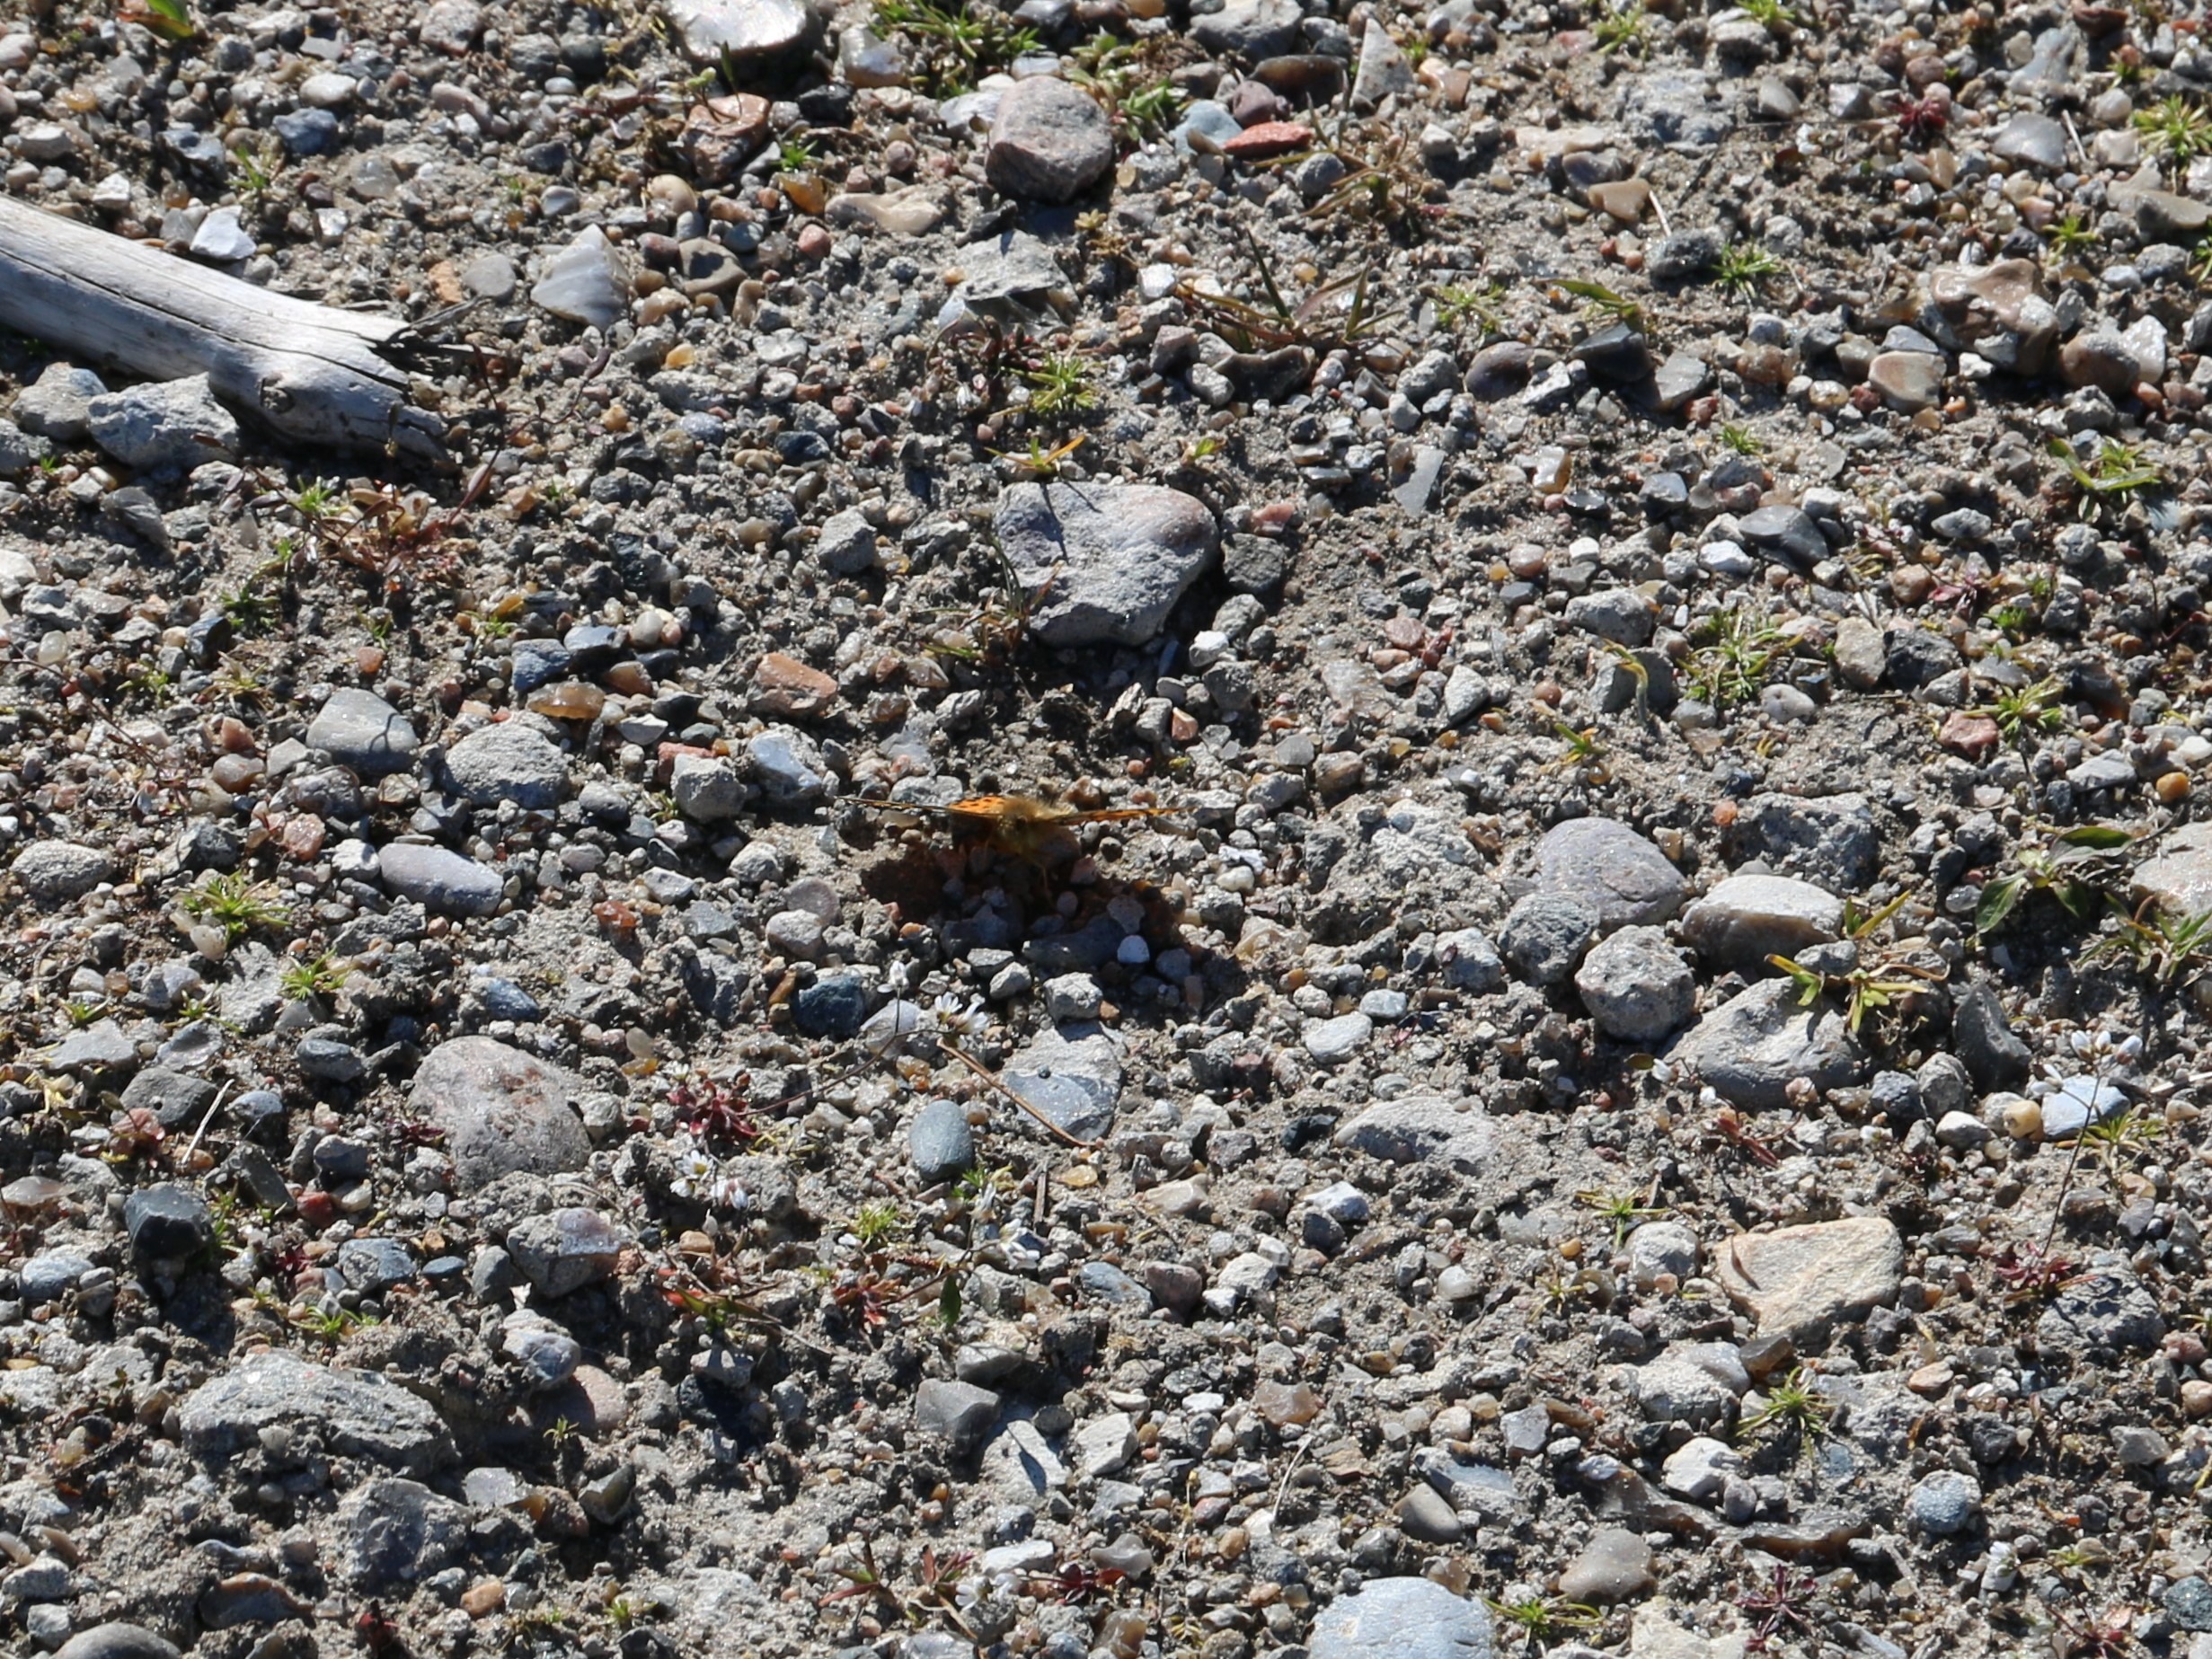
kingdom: Animalia
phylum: Arthropoda
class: Insecta
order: Lepidoptera
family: Nymphalidae
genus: Issoria
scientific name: Issoria lathonia
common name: Storplettet perlemorsommerfugl
